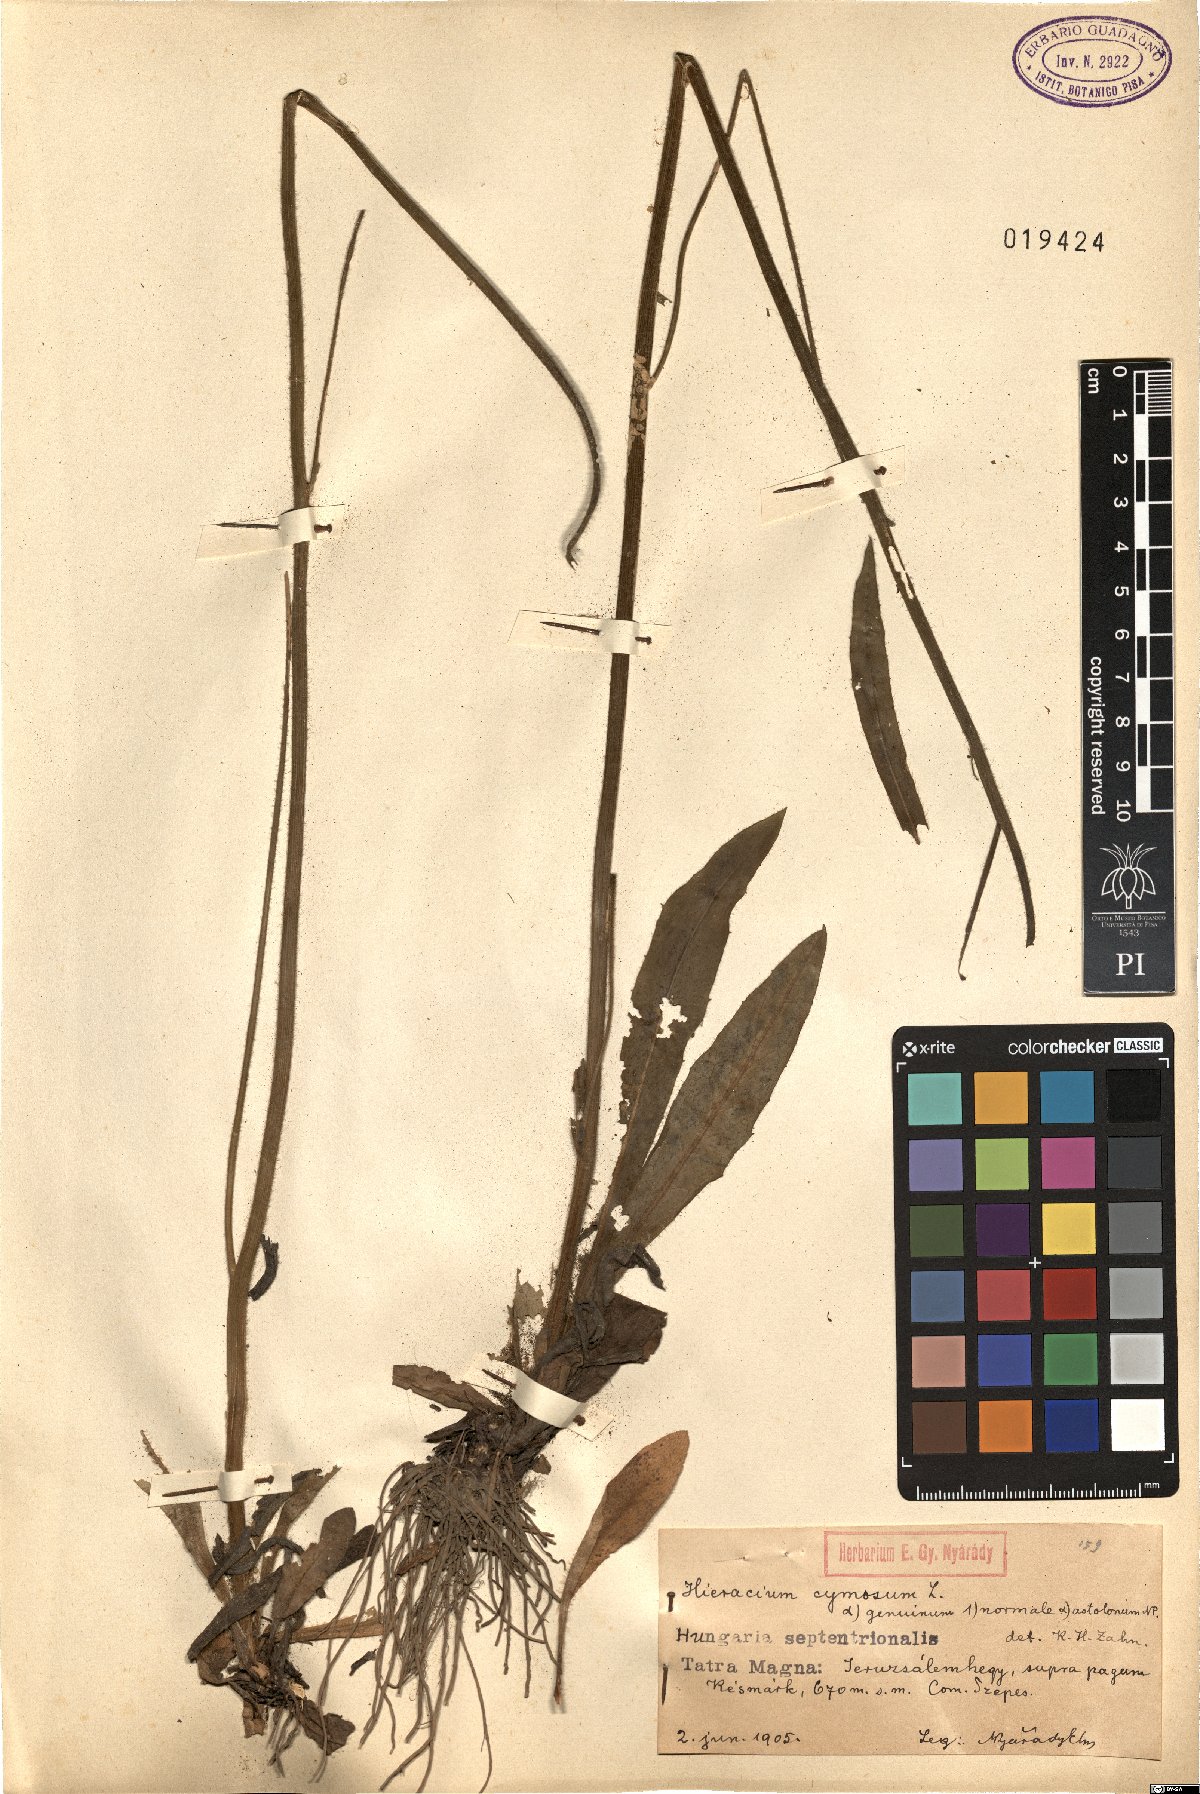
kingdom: Plantae
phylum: Tracheophyta
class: Magnoliopsida
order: Asterales
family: Asteraceae
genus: Pilosella
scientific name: Pilosella cymosa
